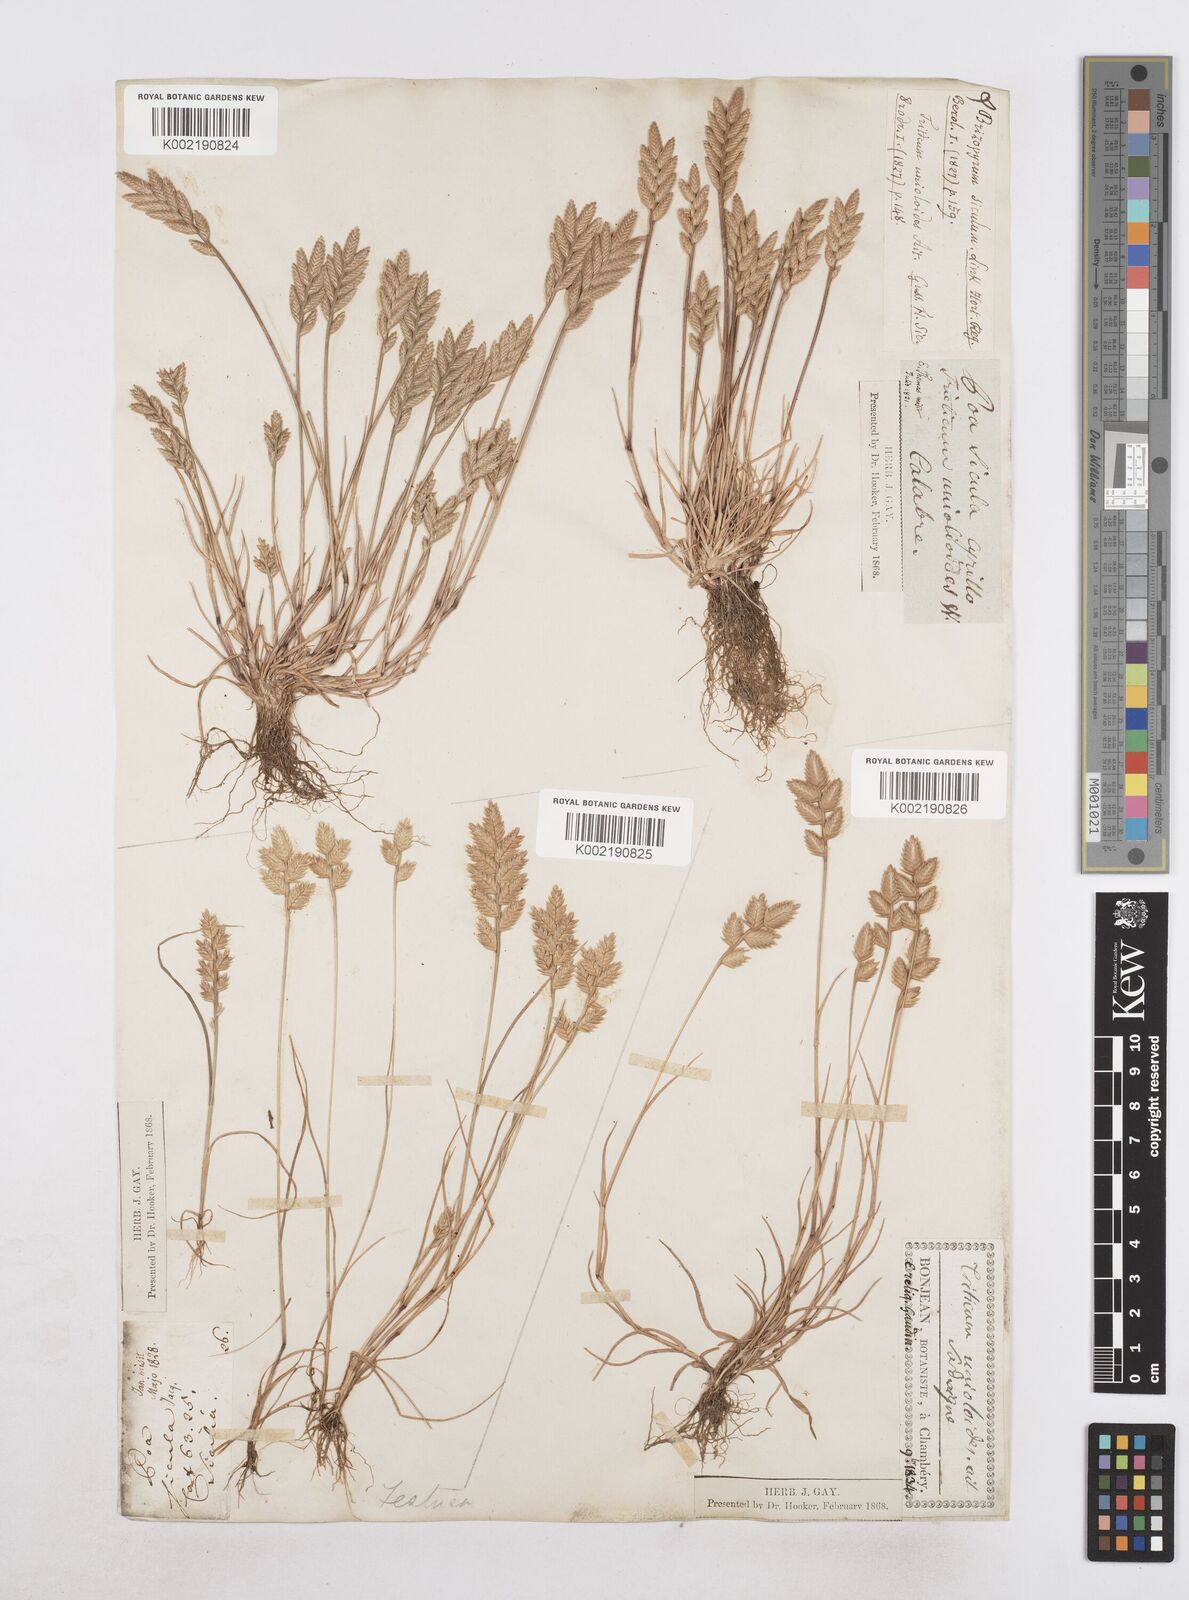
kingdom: Plantae
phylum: Tracheophyta
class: Liliopsida
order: Poales
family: Poaceae
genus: Desmazeria
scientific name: Desmazeria sicula
